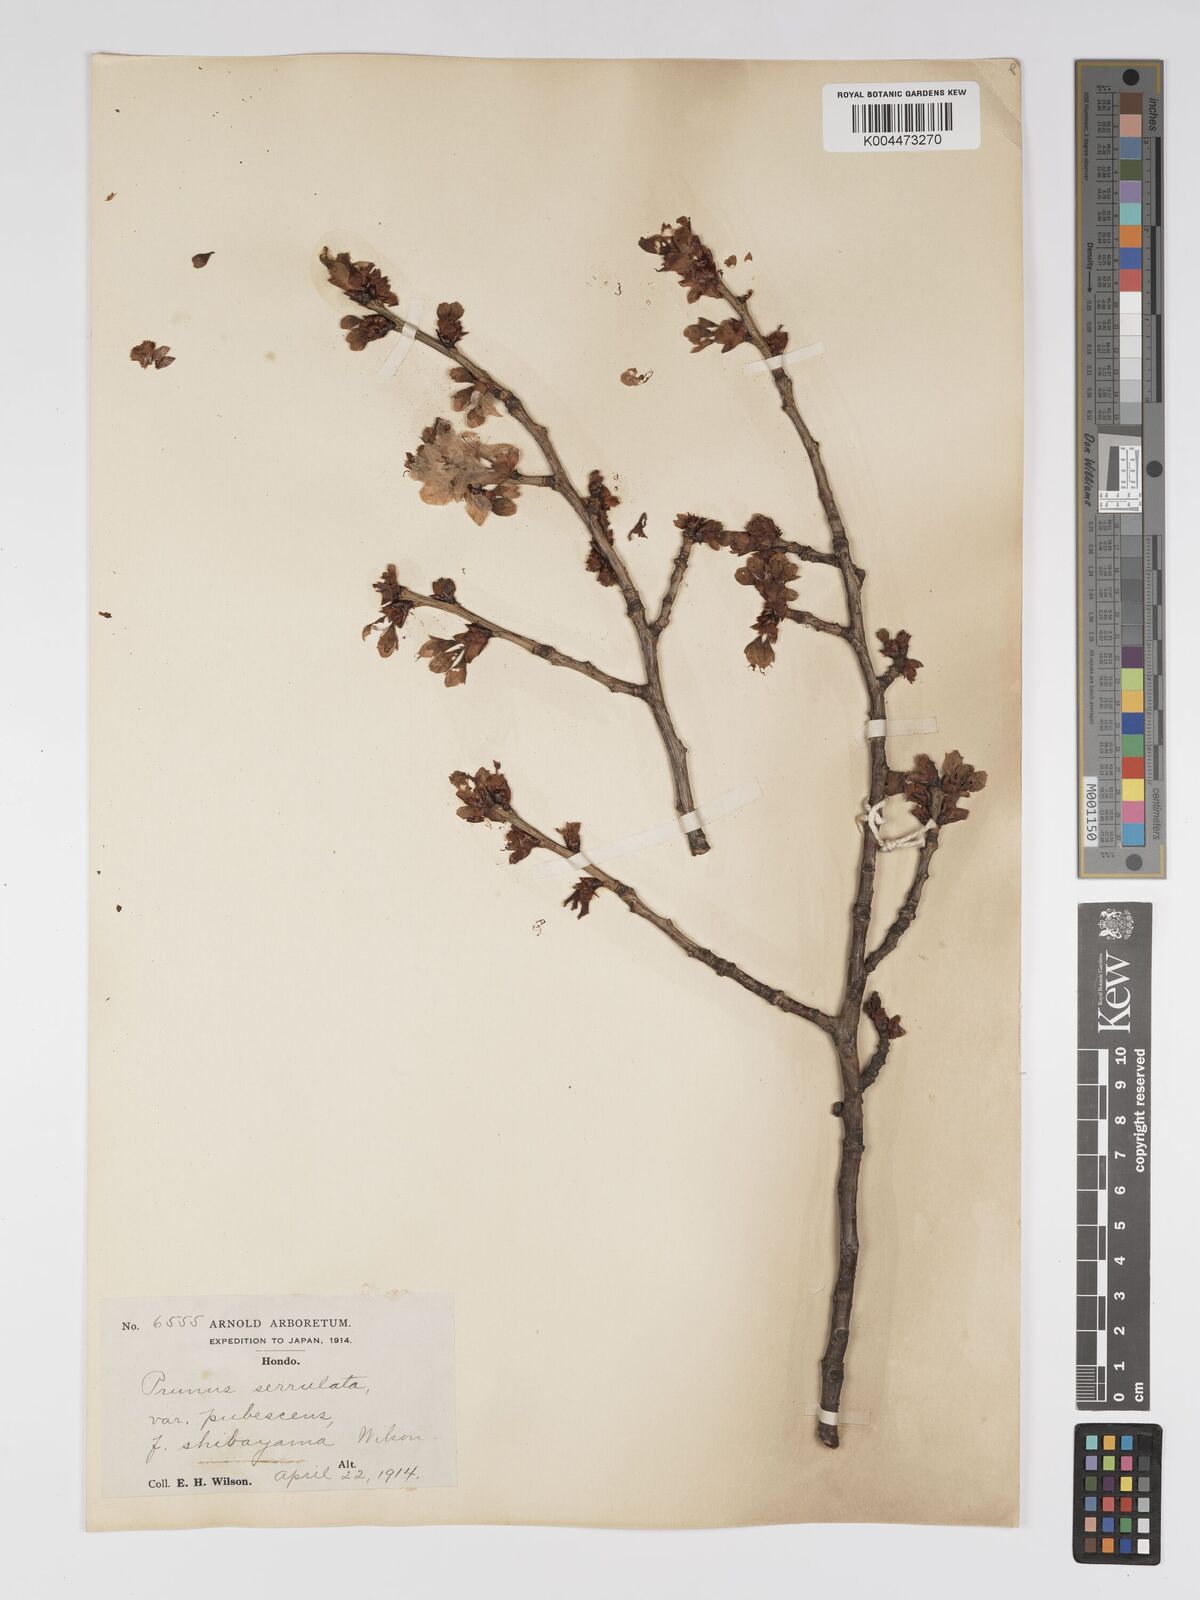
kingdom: Plantae
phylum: Tracheophyta
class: Magnoliopsida
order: Rosales
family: Rosaceae
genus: Prunus
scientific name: Prunus serrulata
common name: Japanese cherry
